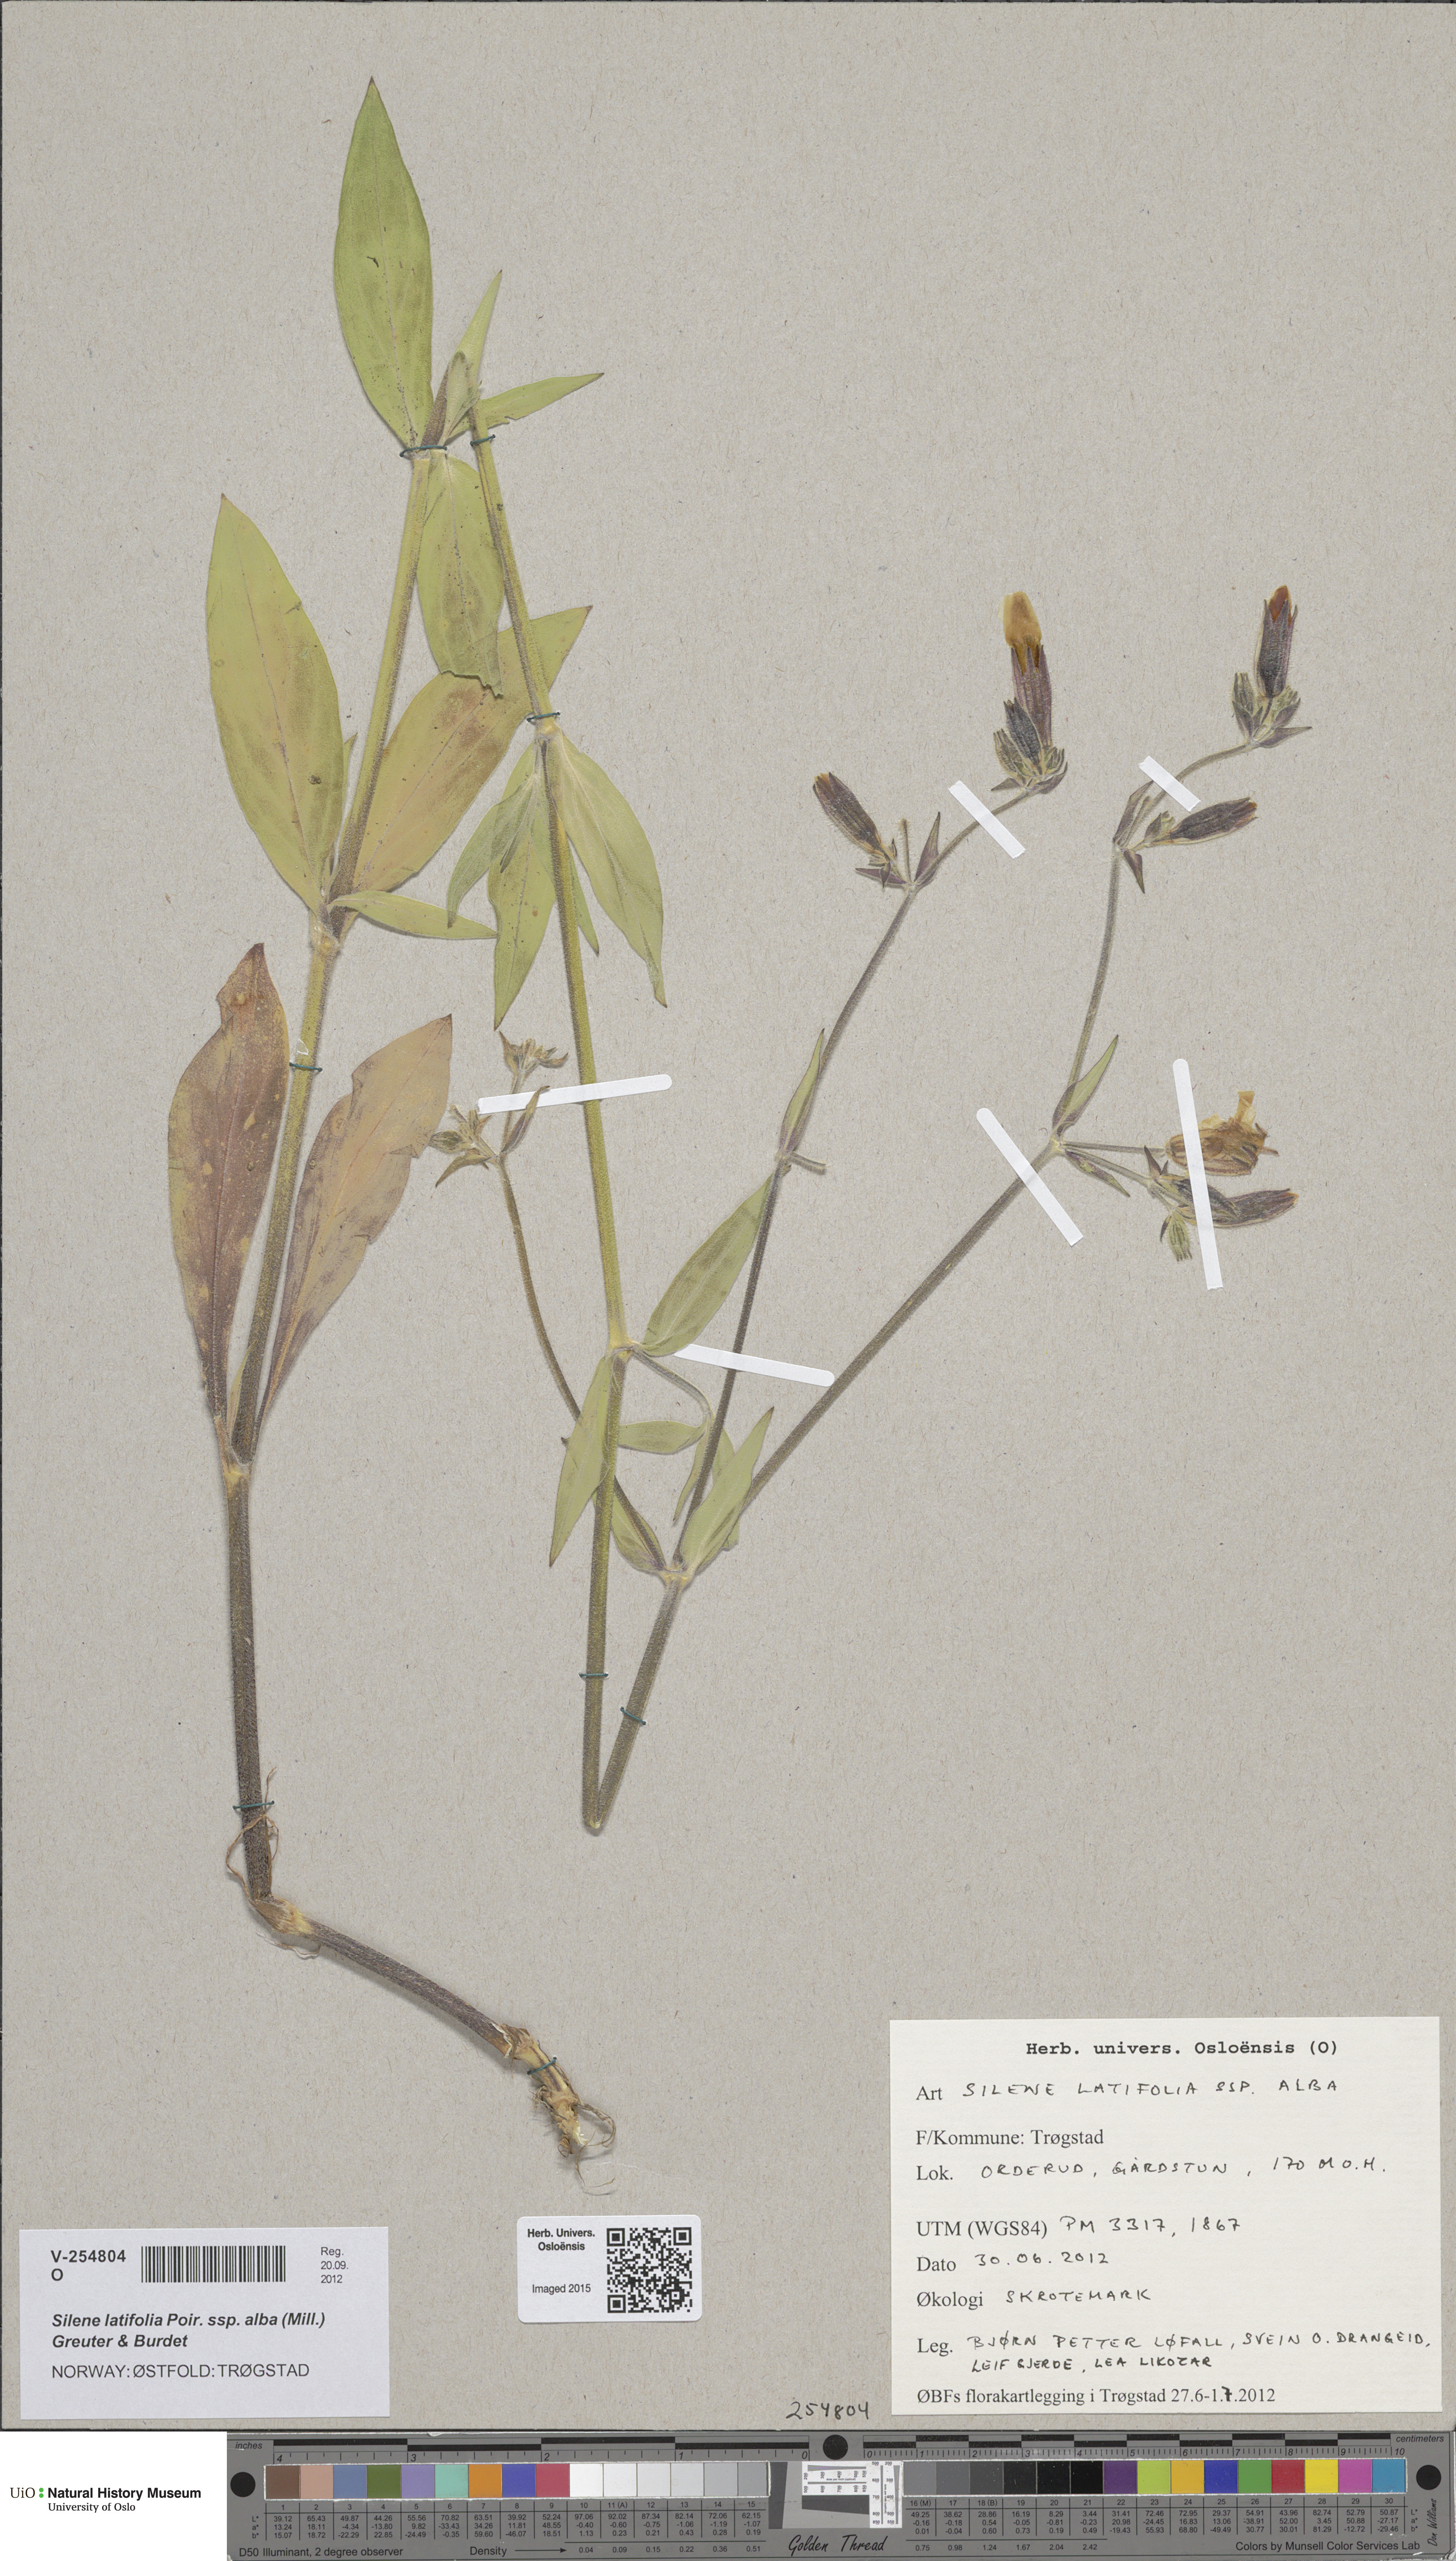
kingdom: Plantae
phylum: Tracheophyta
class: Magnoliopsida
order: Caryophyllales
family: Caryophyllaceae
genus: Silene
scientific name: Silene latifolia
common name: White campion
